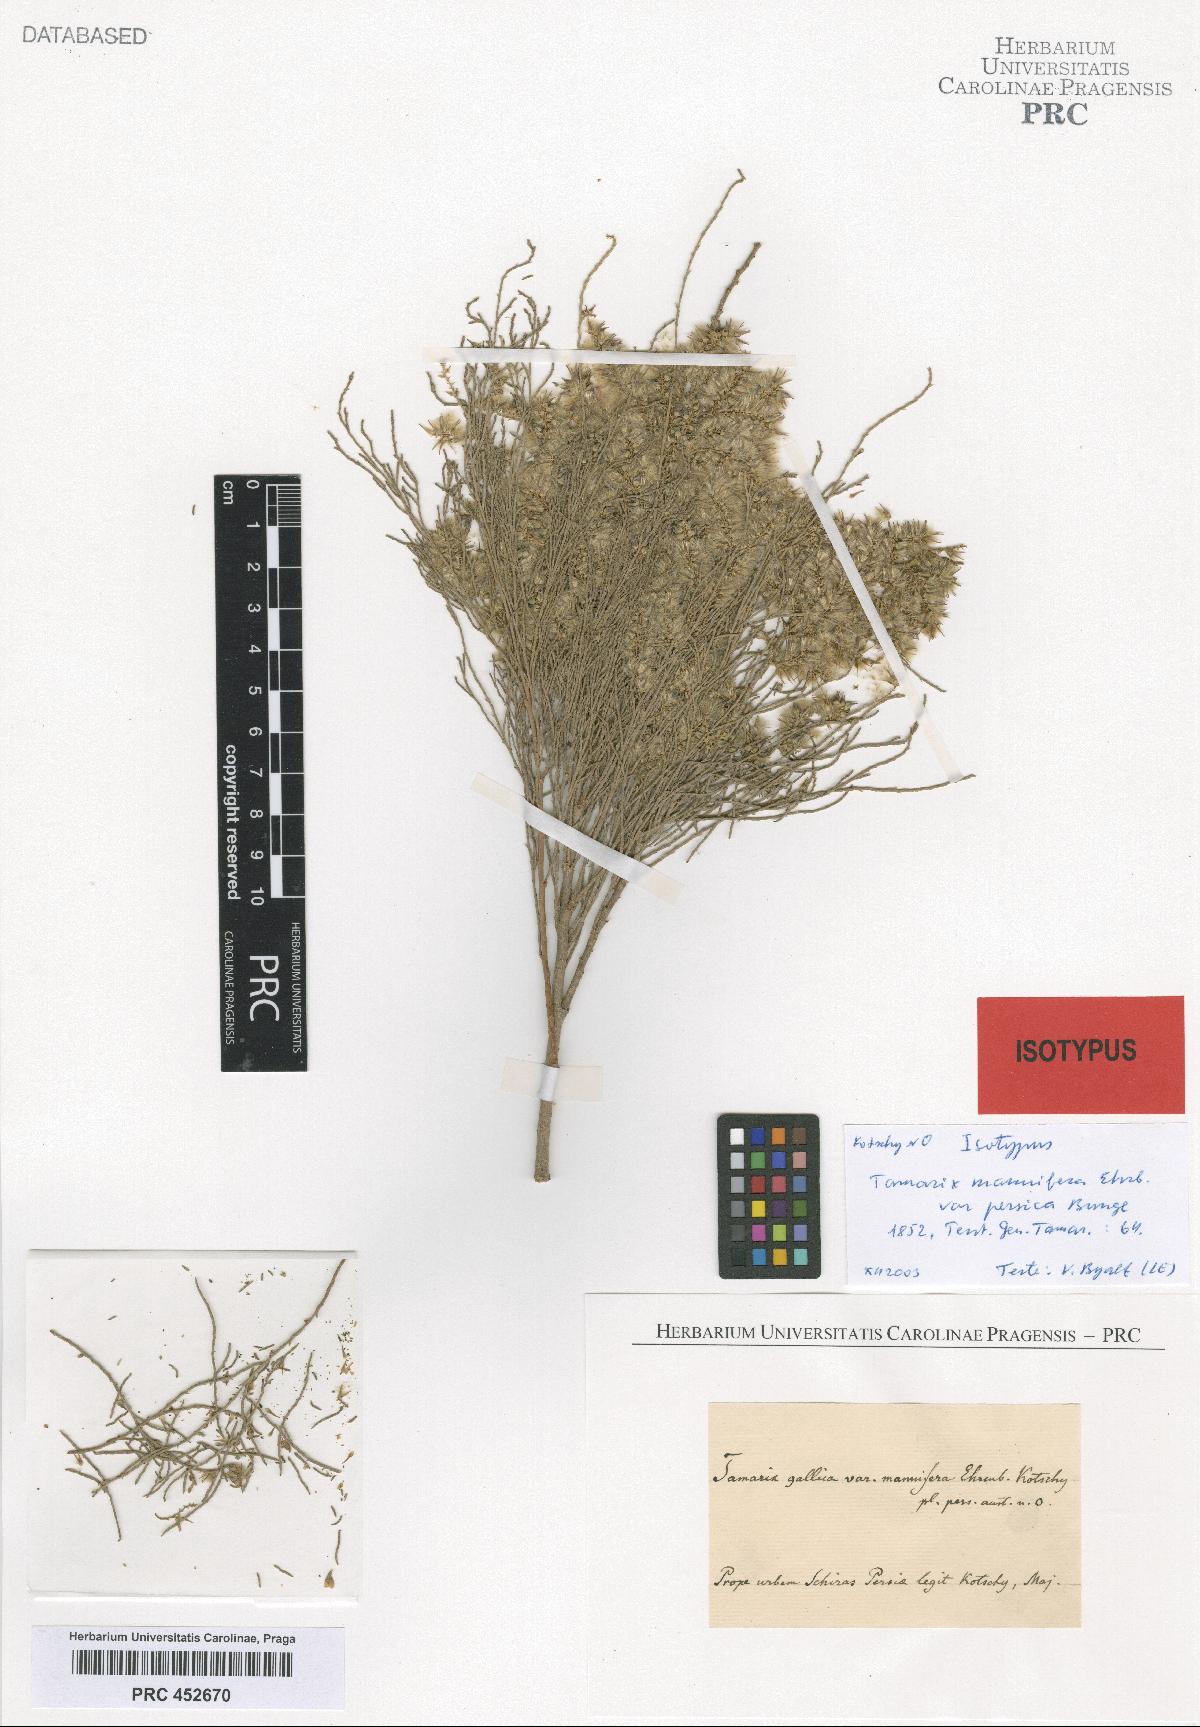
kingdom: Plantae
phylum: Tracheophyta
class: Magnoliopsida
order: Caryophyllales
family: Tamaricaceae
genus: Tamarix
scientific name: Tamarix senegalensis
